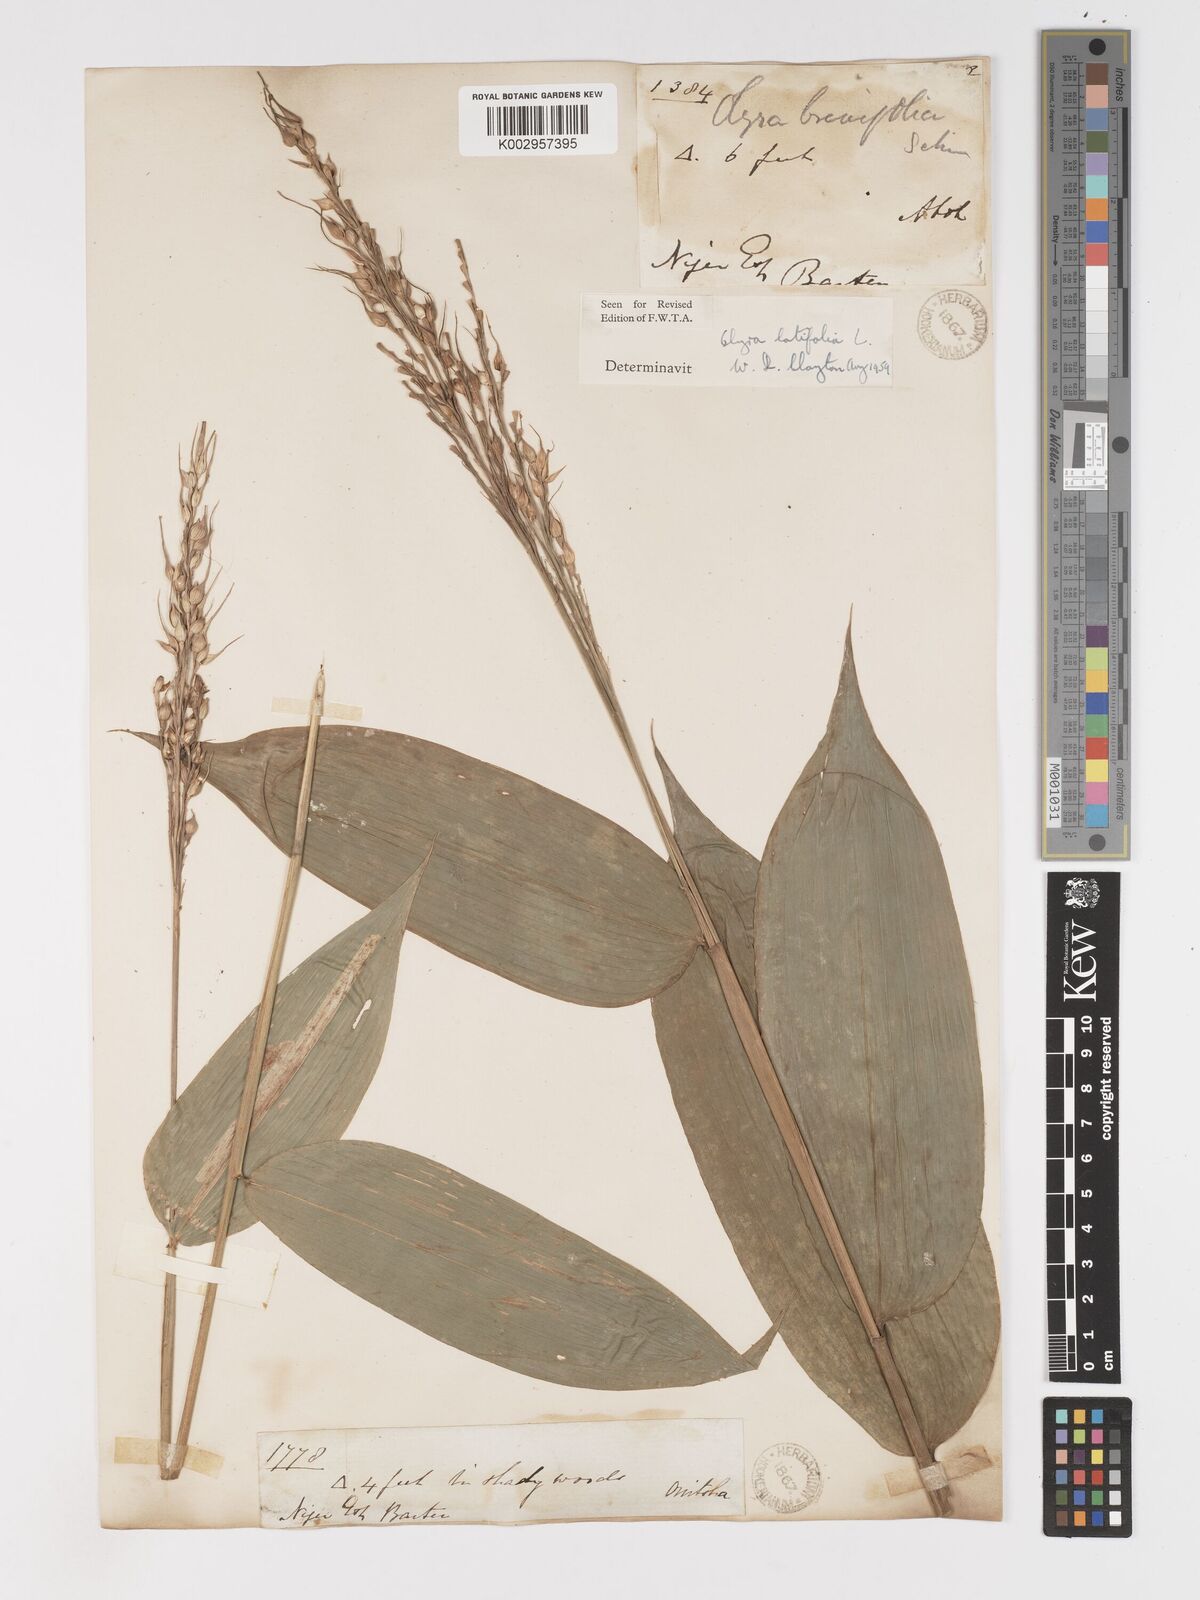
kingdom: Plantae
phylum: Tracheophyta
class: Liliopsida
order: Poales
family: Poaceae
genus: Olyra
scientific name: Olyra latifolia
